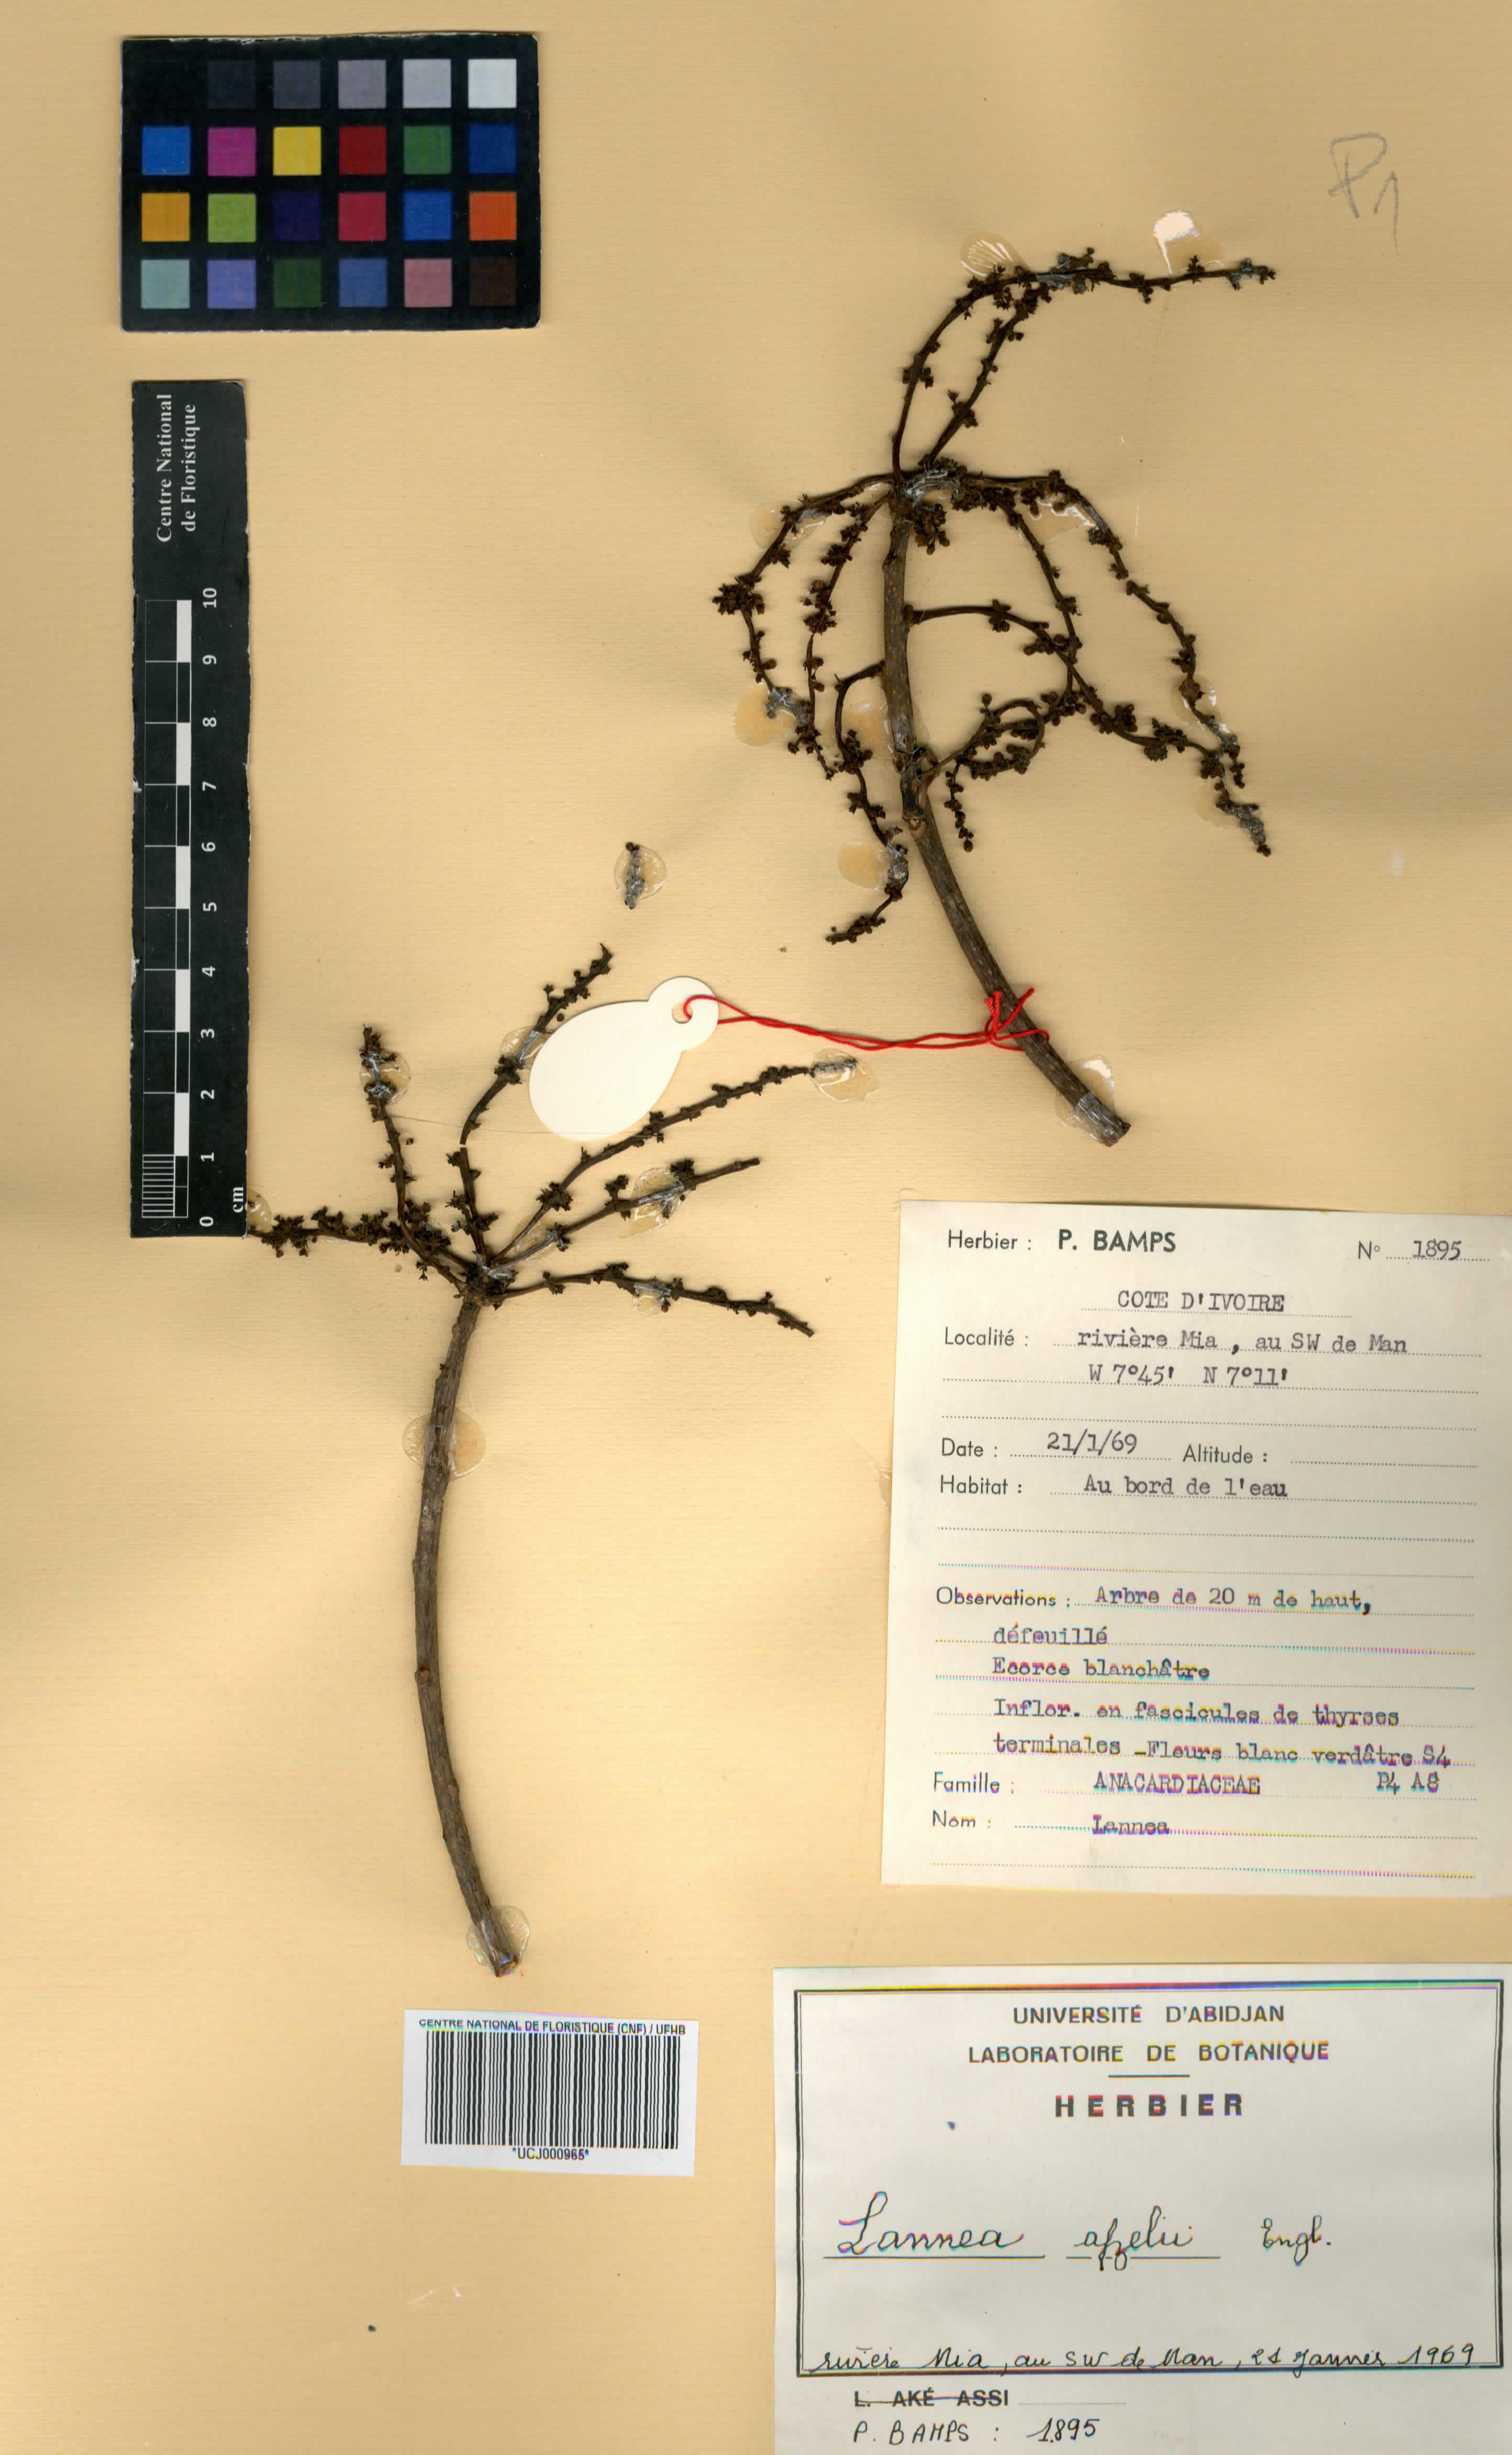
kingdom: Plantae
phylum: Tracheophyta
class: Magnoliopsida
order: Sapindales
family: Anacardiaceae
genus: Lannea
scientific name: Lannea nigritana
